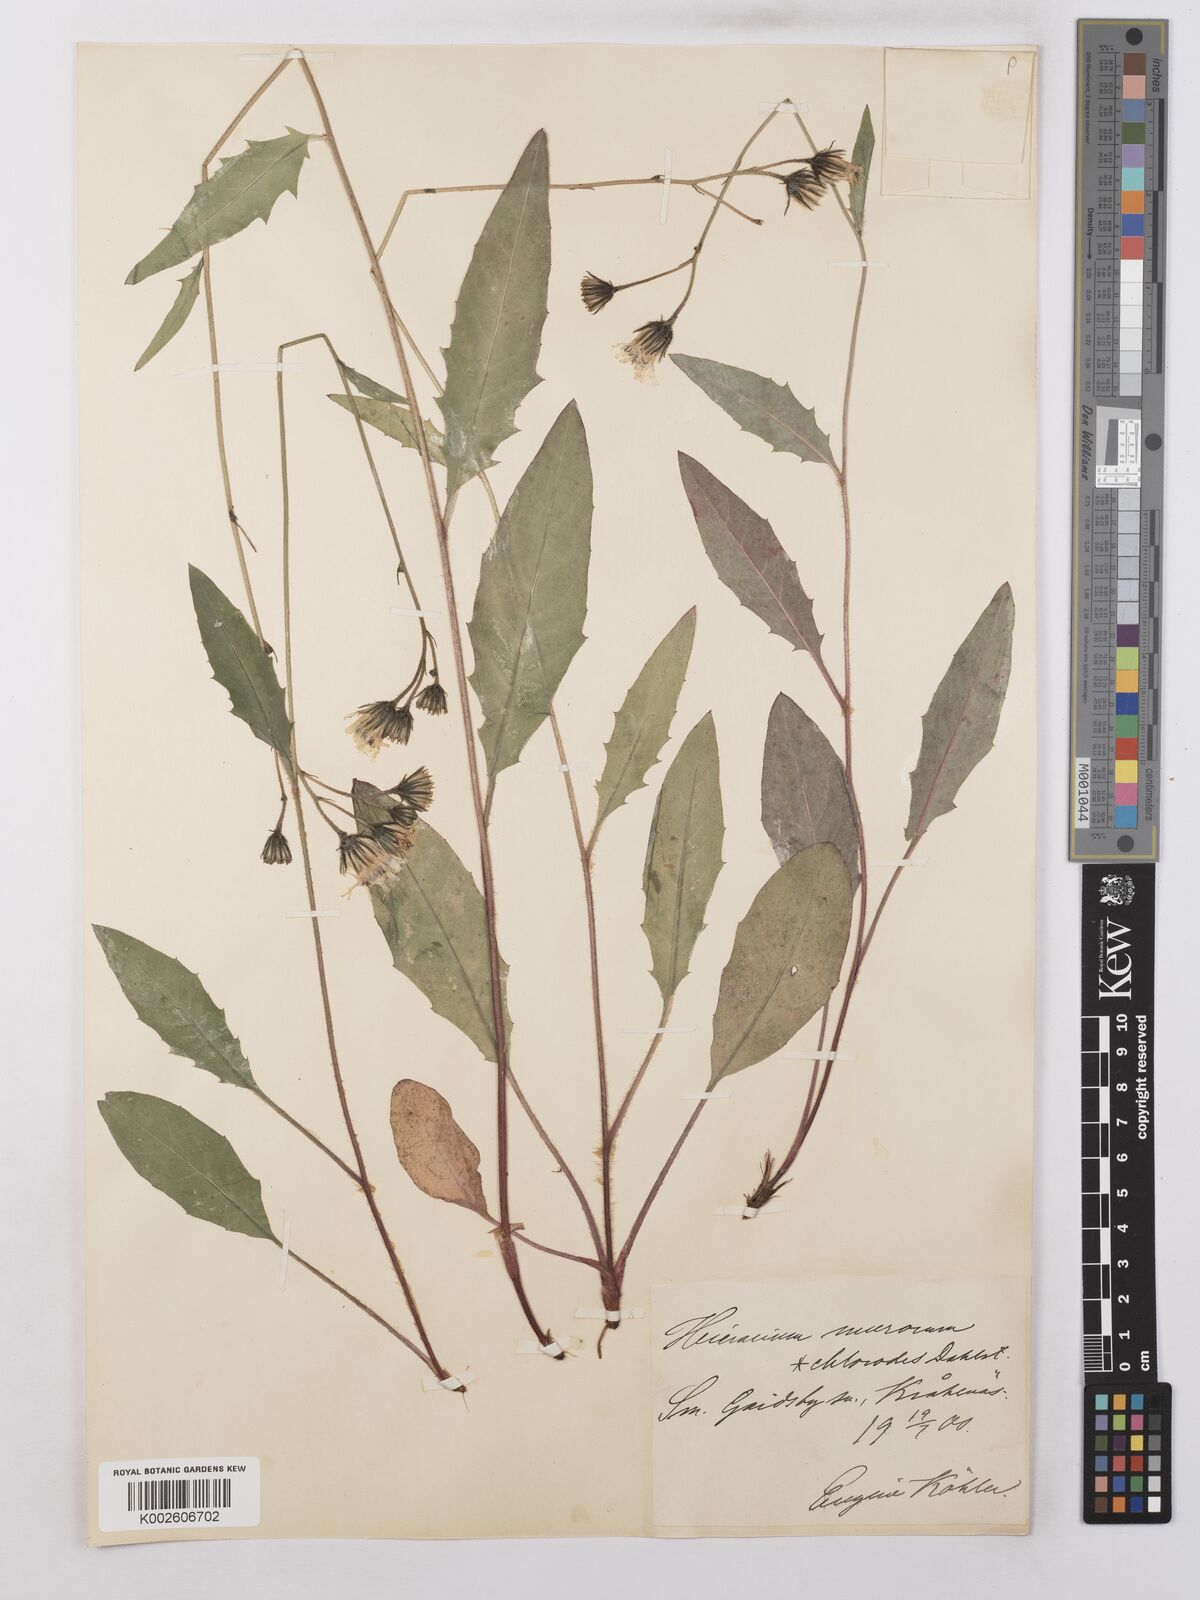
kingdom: Plantae
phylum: Tracheophyta
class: Magnoliopsida
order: Asterales
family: Asteraceae
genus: Hieracium
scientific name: Hieracium lachenalii
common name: Common hawkweed
